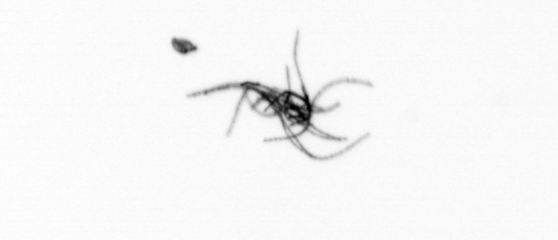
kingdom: Bacteria
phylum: Cyanobacteria
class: Cyanobacteriia
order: Cyanobacteriales
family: Microcoleaceae
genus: Trichodesmium
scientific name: Trichodesmium
